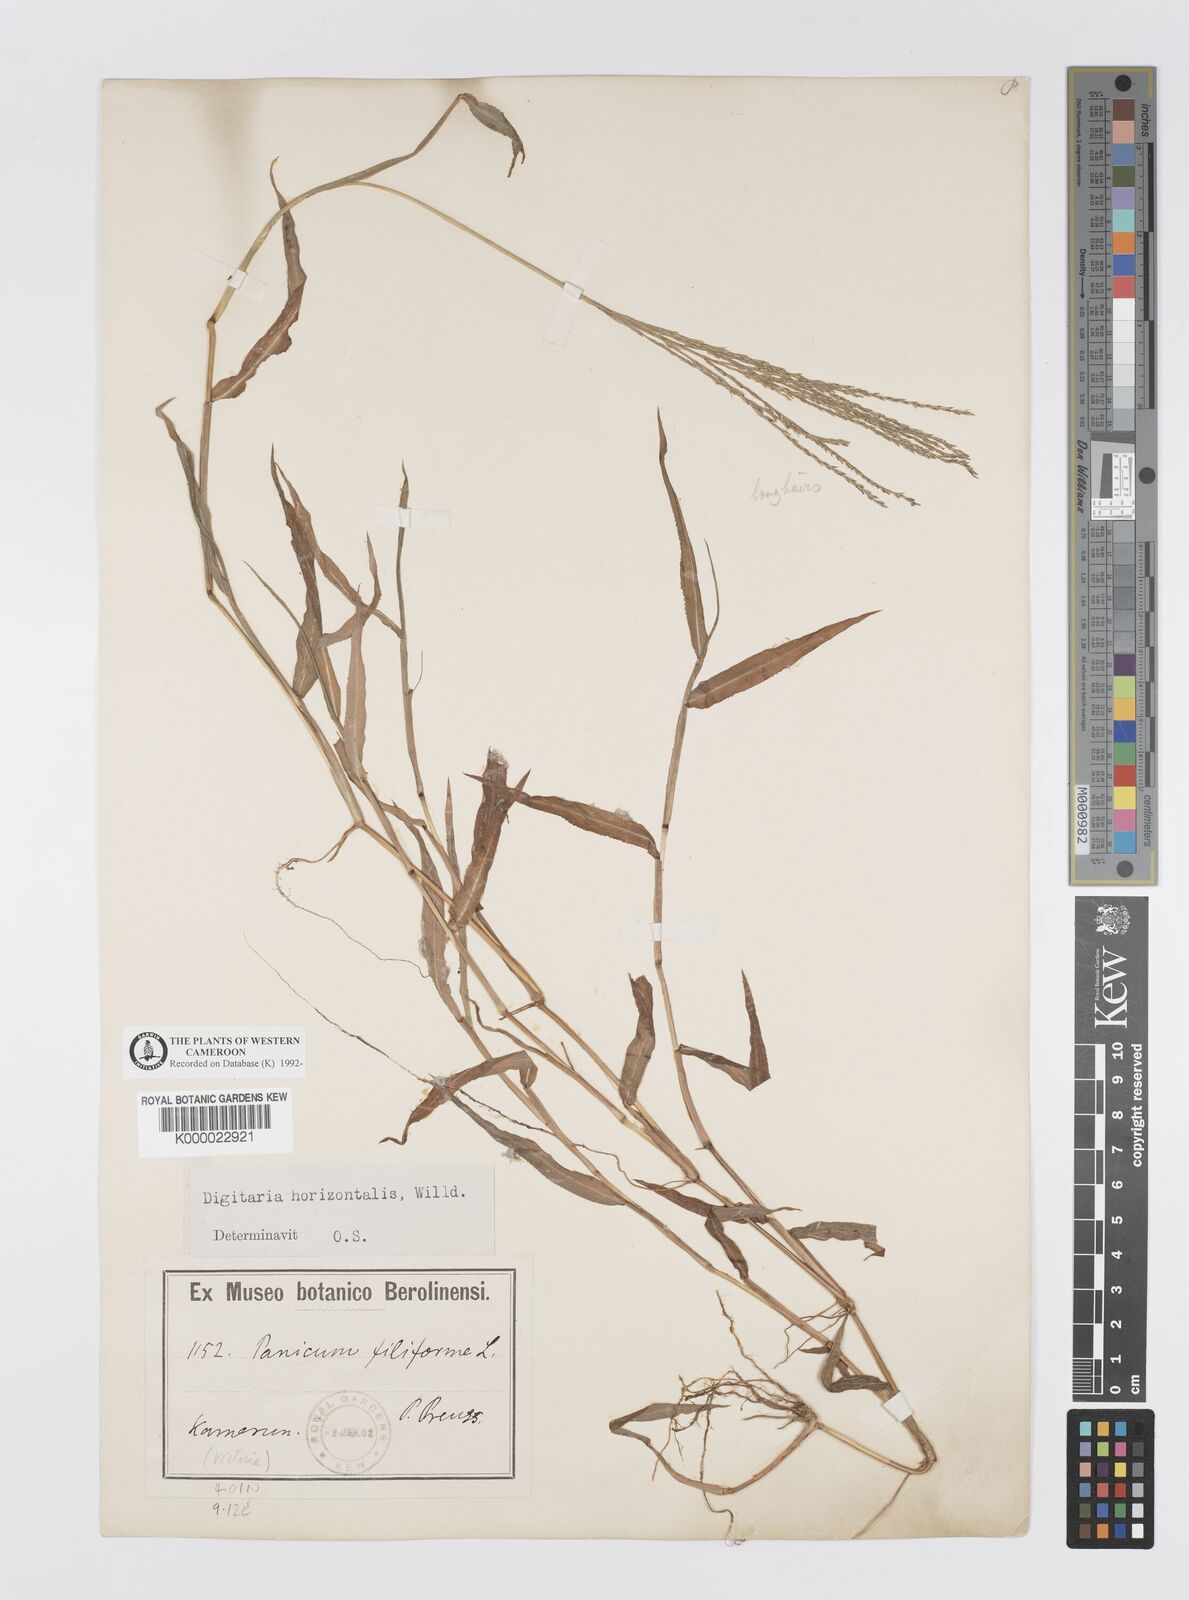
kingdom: Plantae
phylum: Tracheophyta
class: Liliopsida
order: Poales
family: Poaceae
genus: Digitaria
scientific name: Digitaria horizontalis
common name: Jamaican crabgrass
